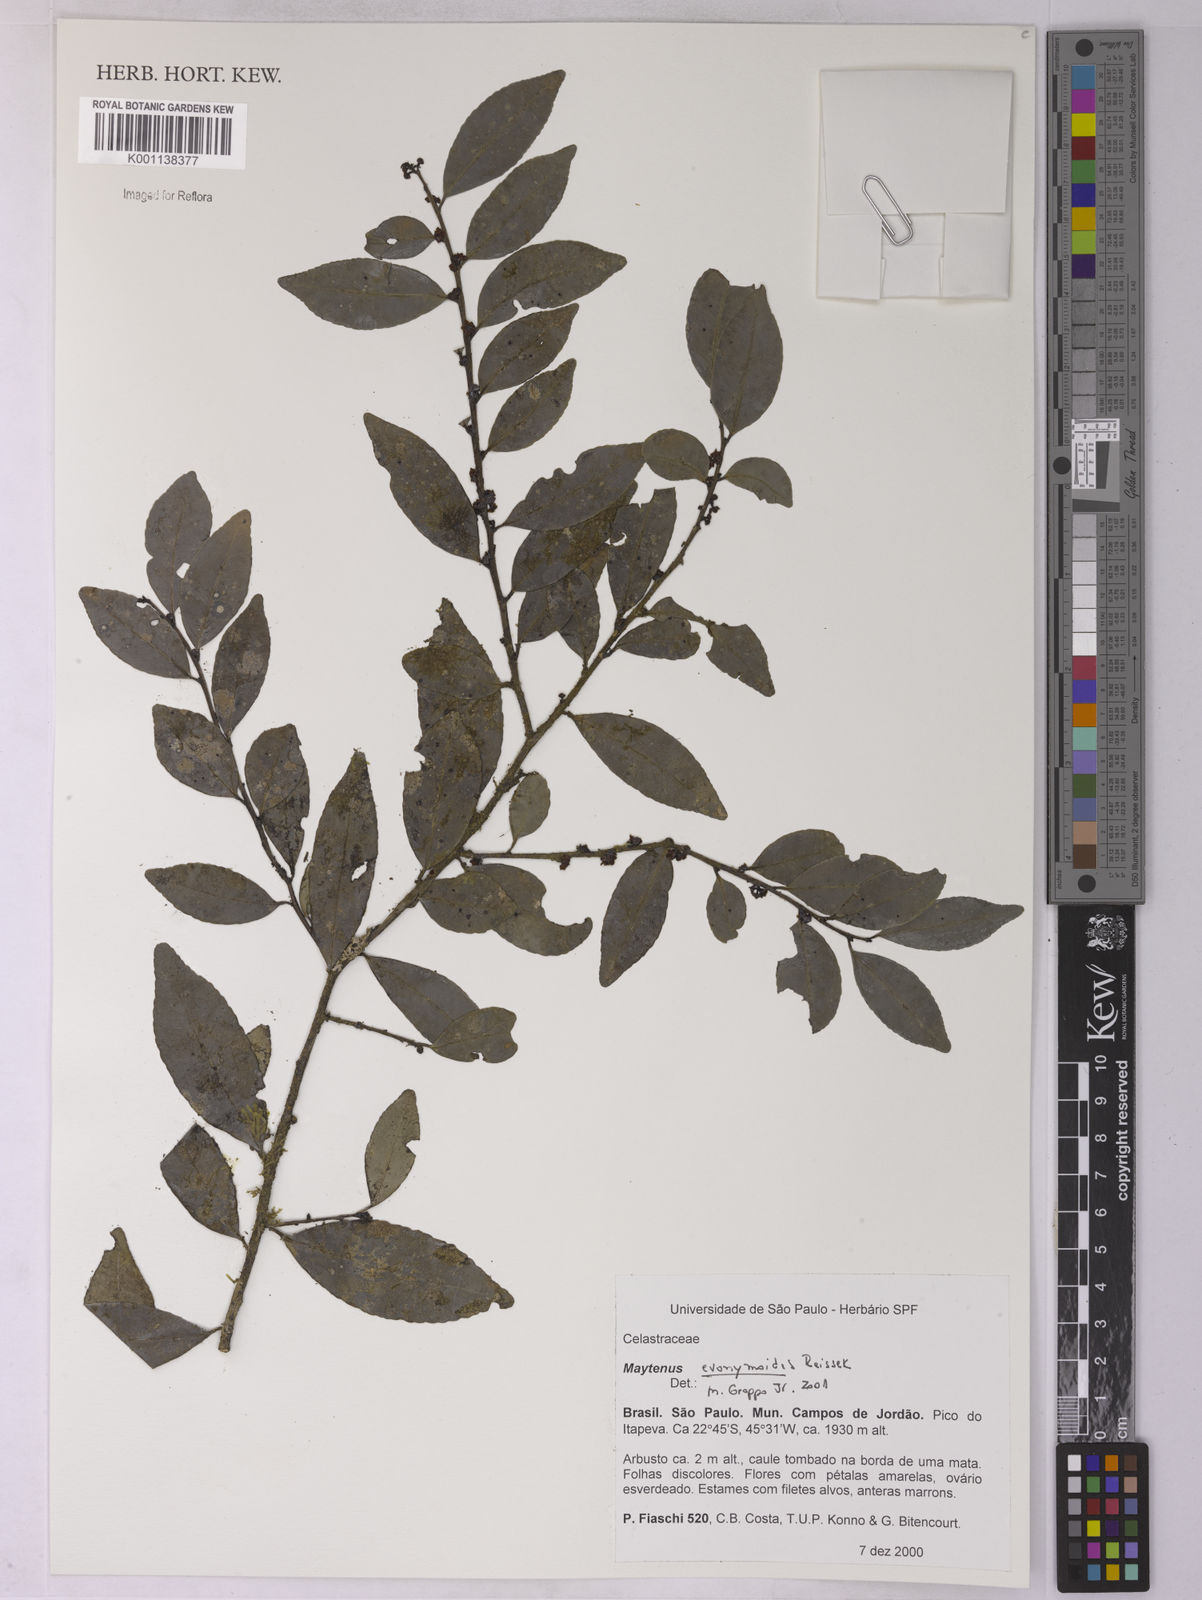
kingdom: Plantae
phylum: Tracheophyta
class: Magnoliopsida
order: Celastrales
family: Celastraceae
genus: Monteverdia
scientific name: Monteverdia evonymoides
